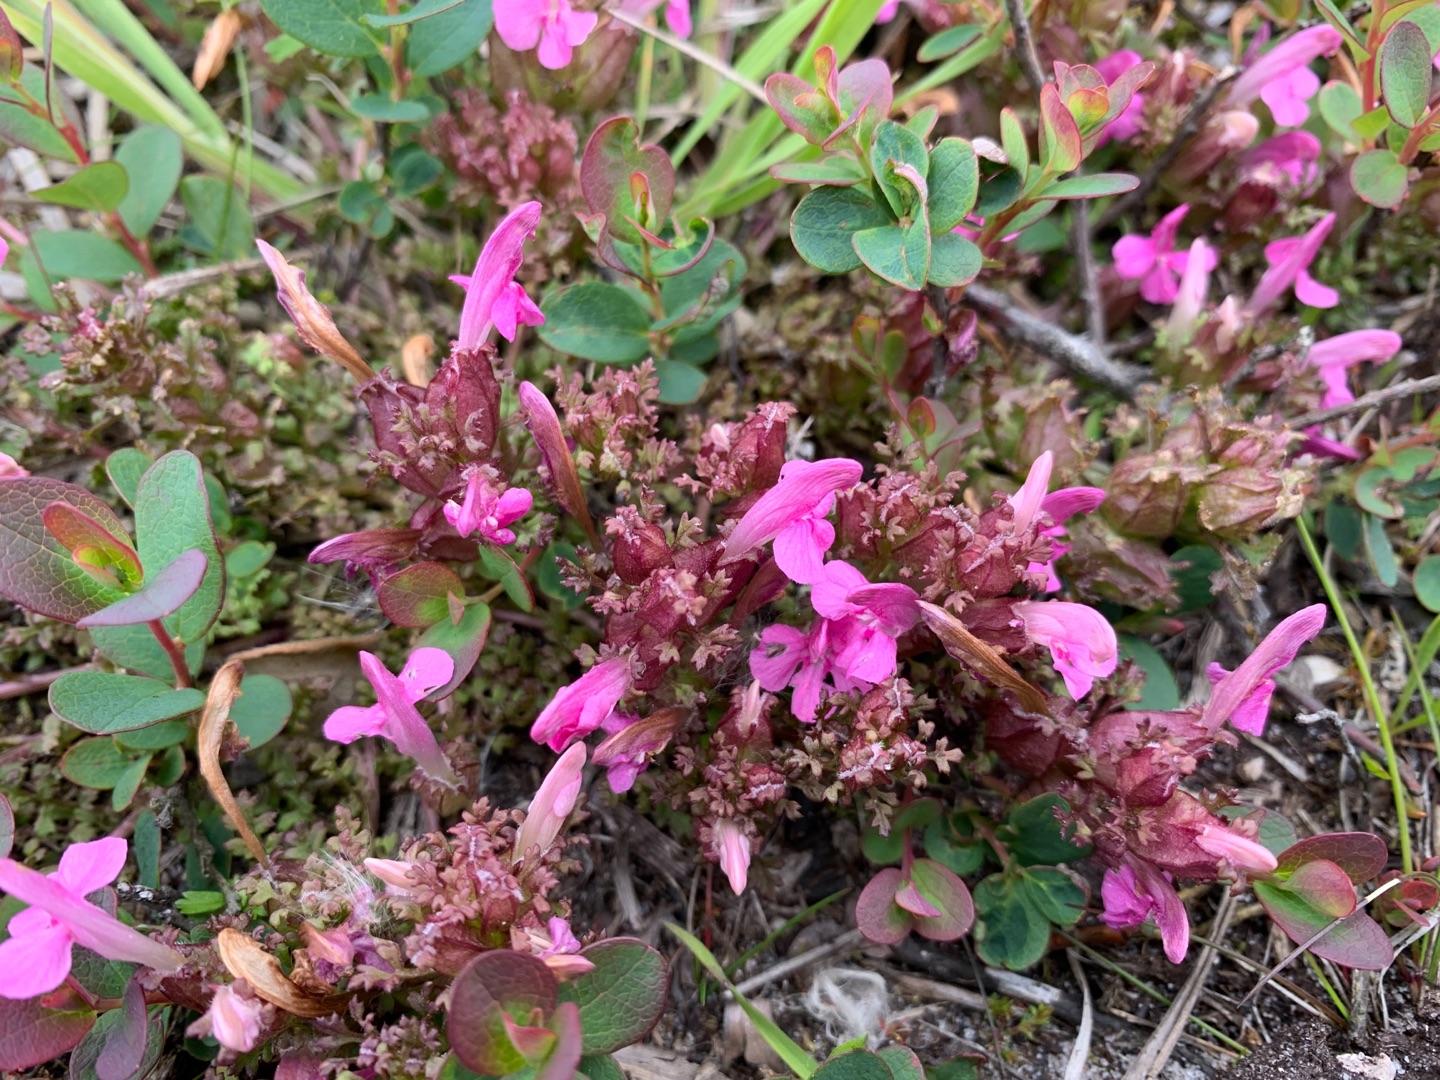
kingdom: Plantae
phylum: Tracheophyta
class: Magnoliopsida
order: Lamiales
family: Orobanchaceae
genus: Pedicularis
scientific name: Pedicularis sylvatica
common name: Mose-troldurt
